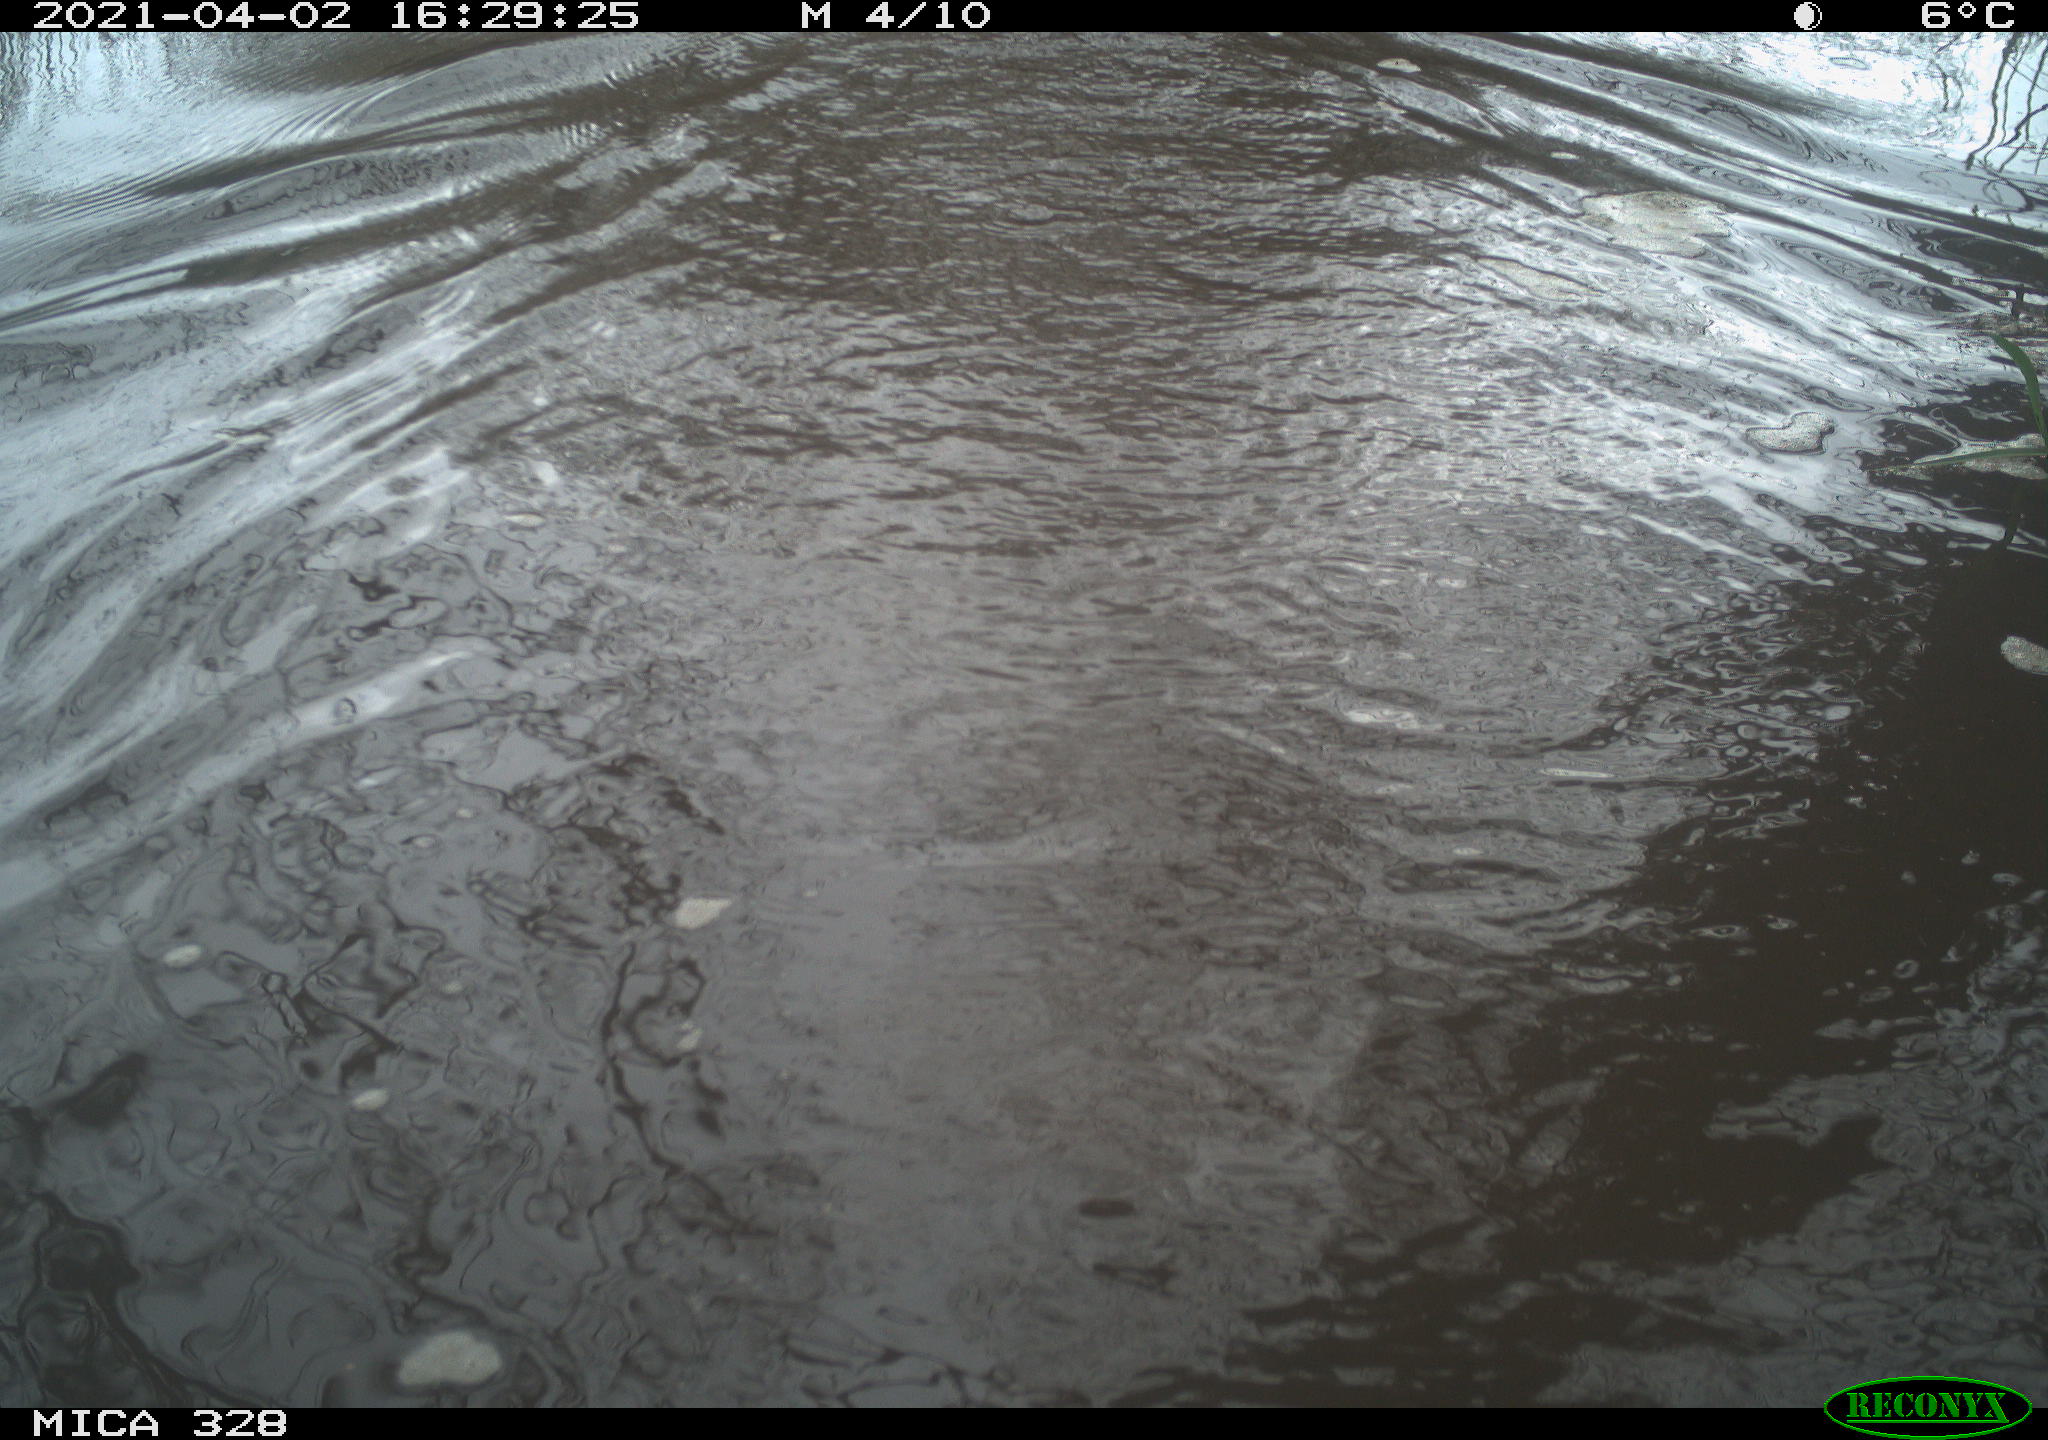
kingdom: Animalia
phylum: Chordata
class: Mammalia
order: Rodentia
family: Cricetidae
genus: Ondatra
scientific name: Ondatra zibethicus
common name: Muskrat
